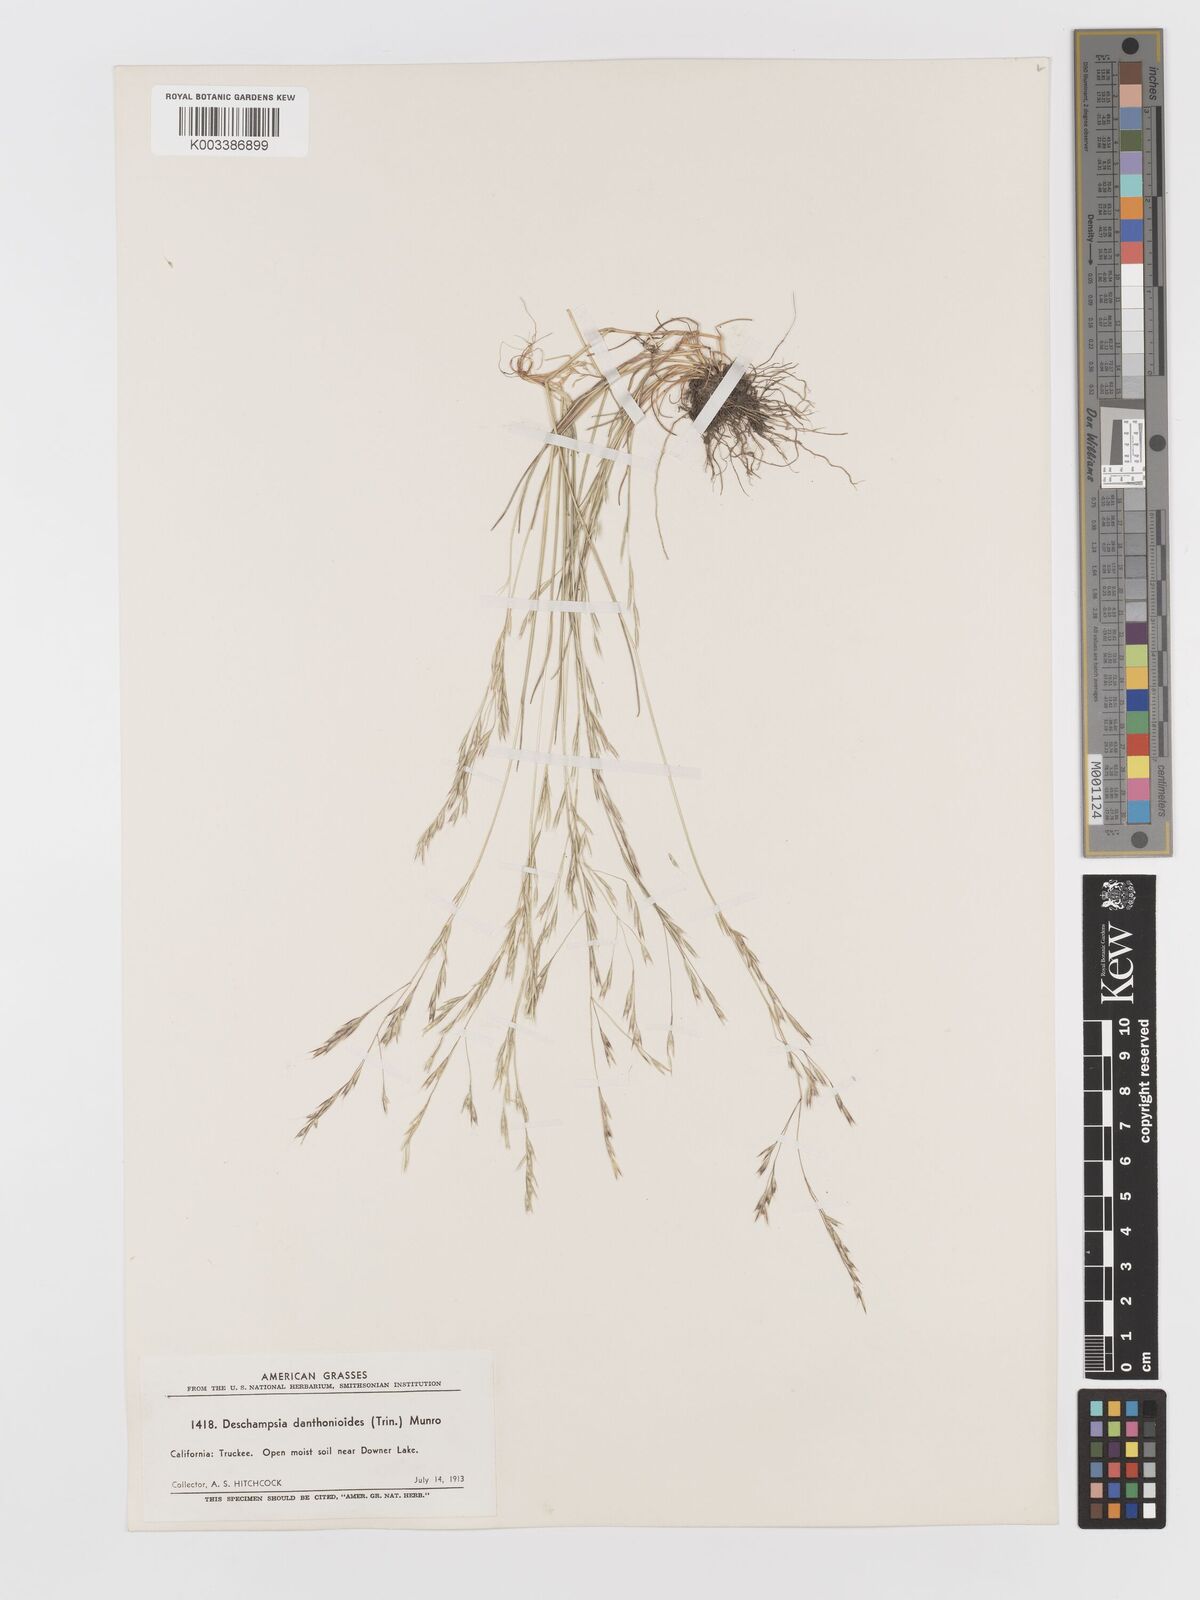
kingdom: Plantae
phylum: Tracheophyta
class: Liliopsida
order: Poales
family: Poaceae
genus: Deschampsia
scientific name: Deschampsia danthonioides
